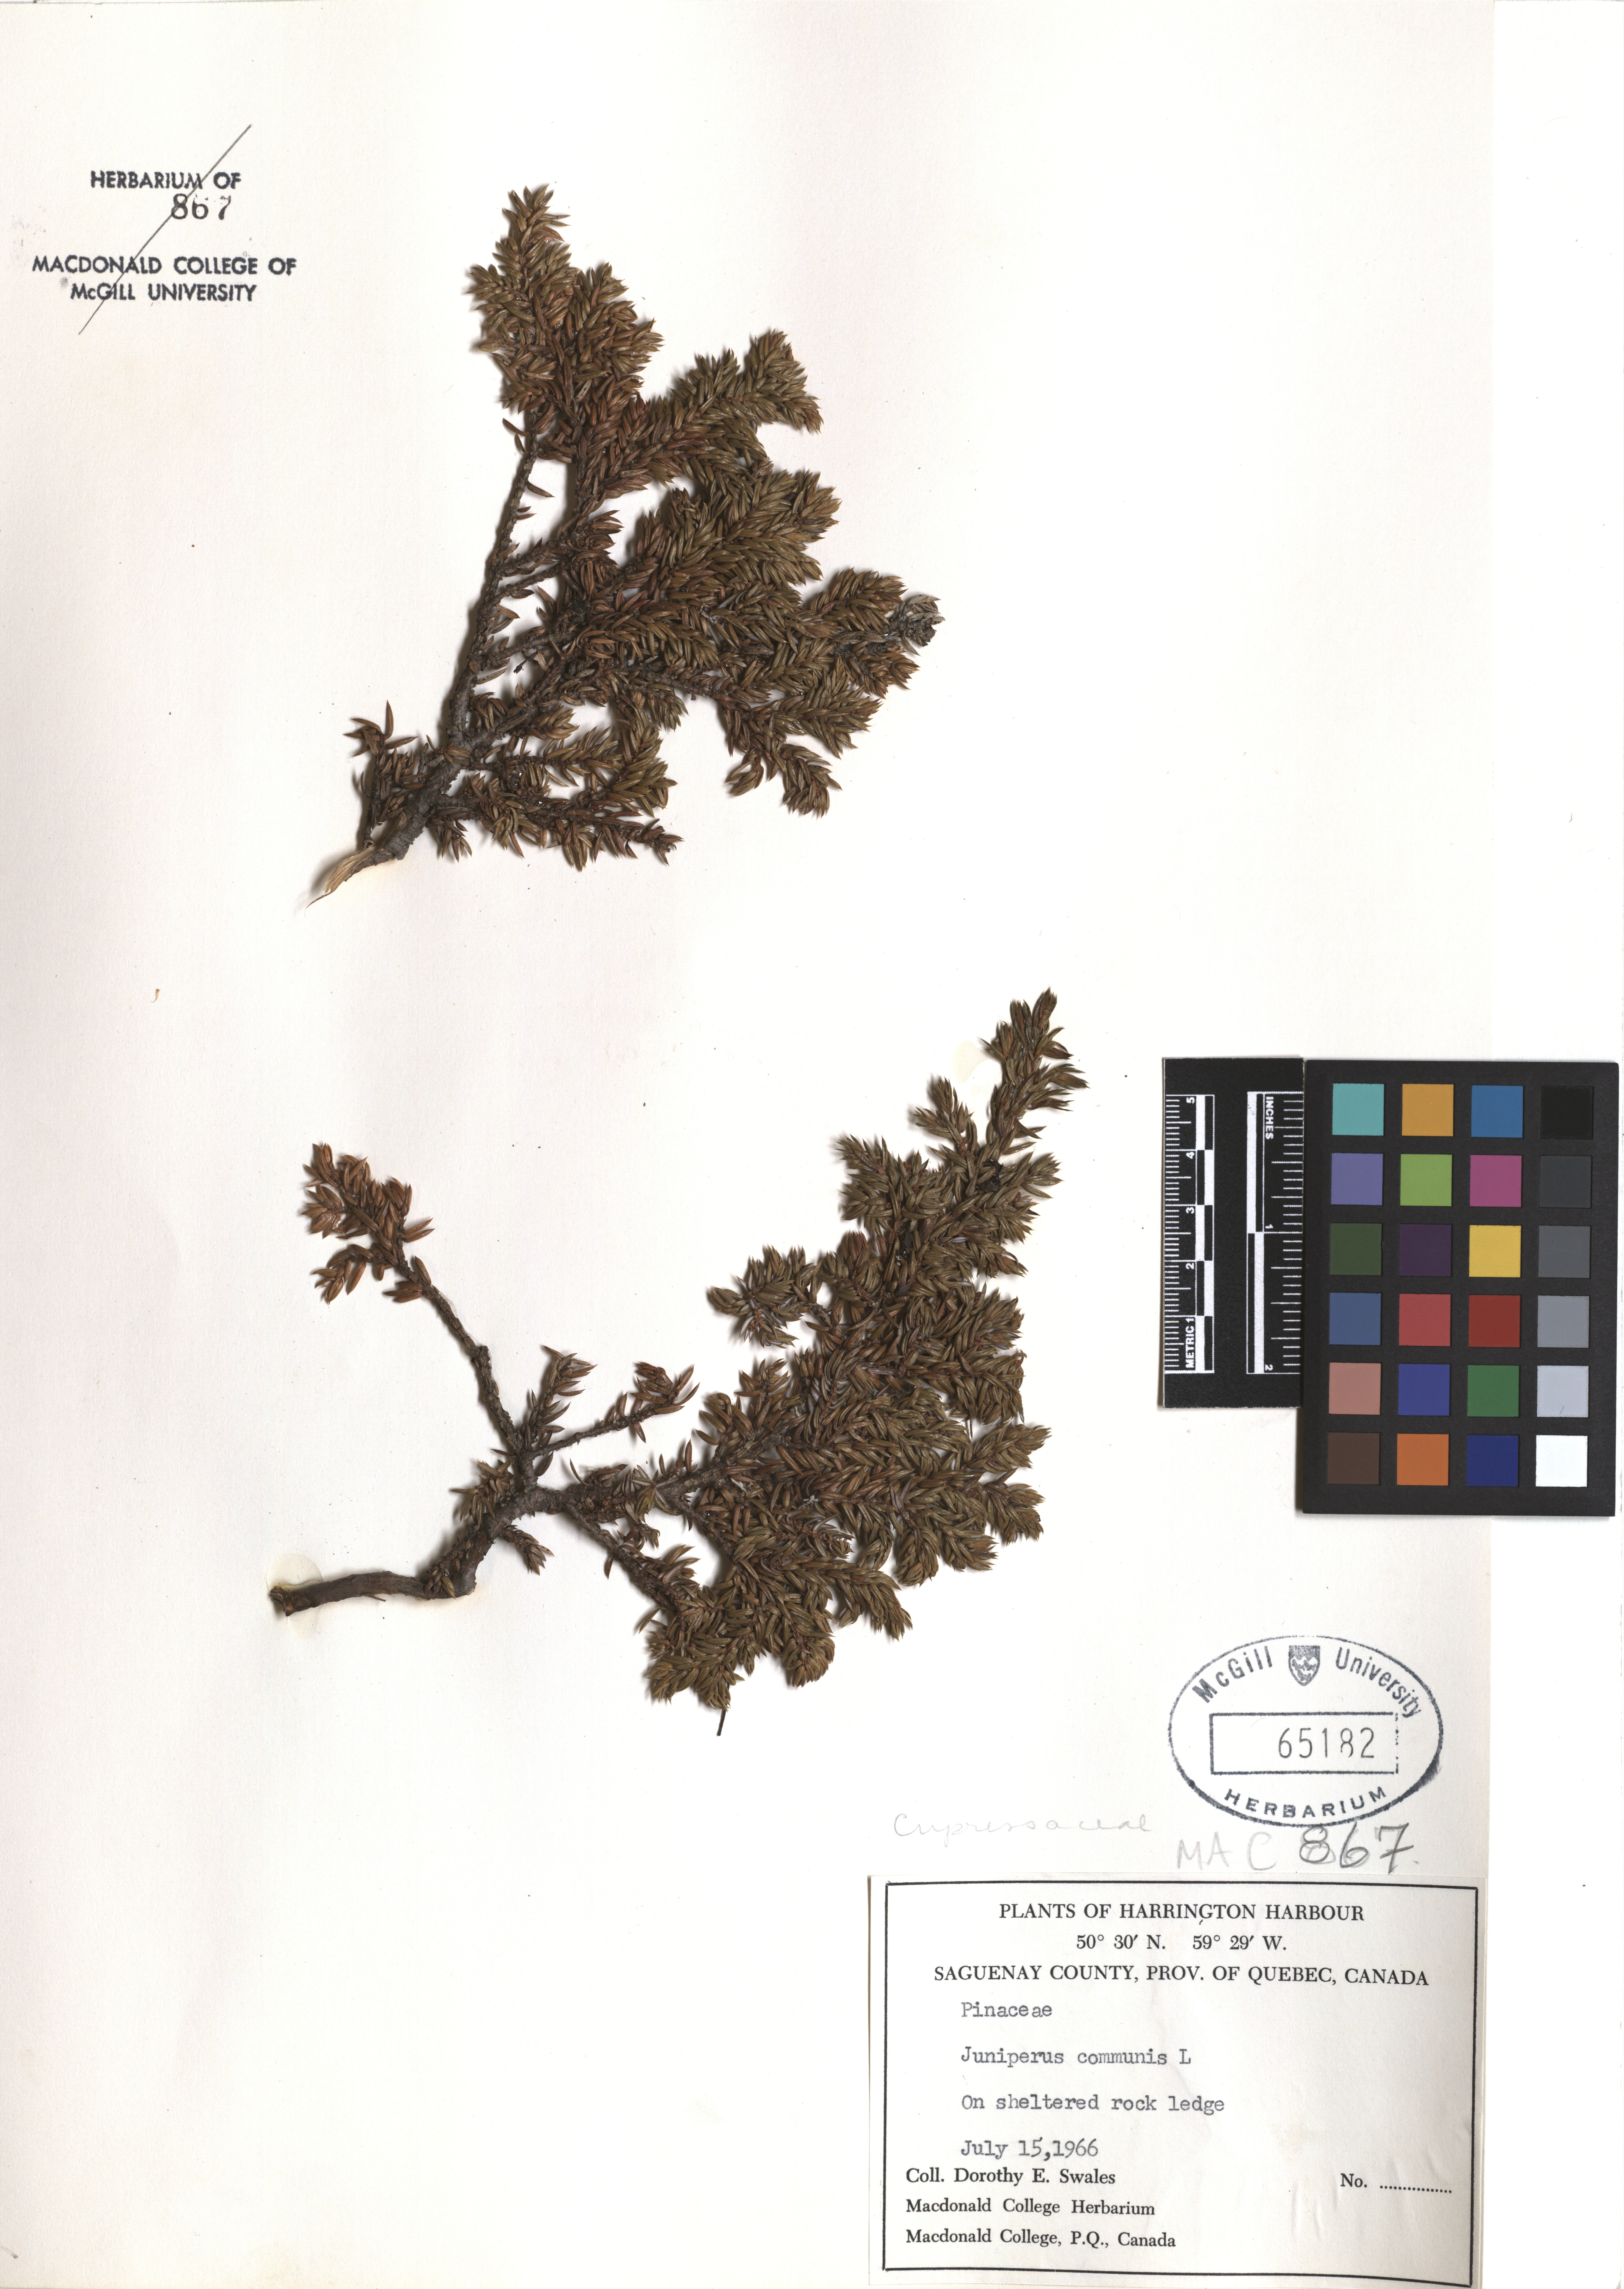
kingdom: Plantae
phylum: Tracheophyta
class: Pinopsida
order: Pinales
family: Cupressaceae
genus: Juniperus
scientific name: Juniperus communis
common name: Common juniper
